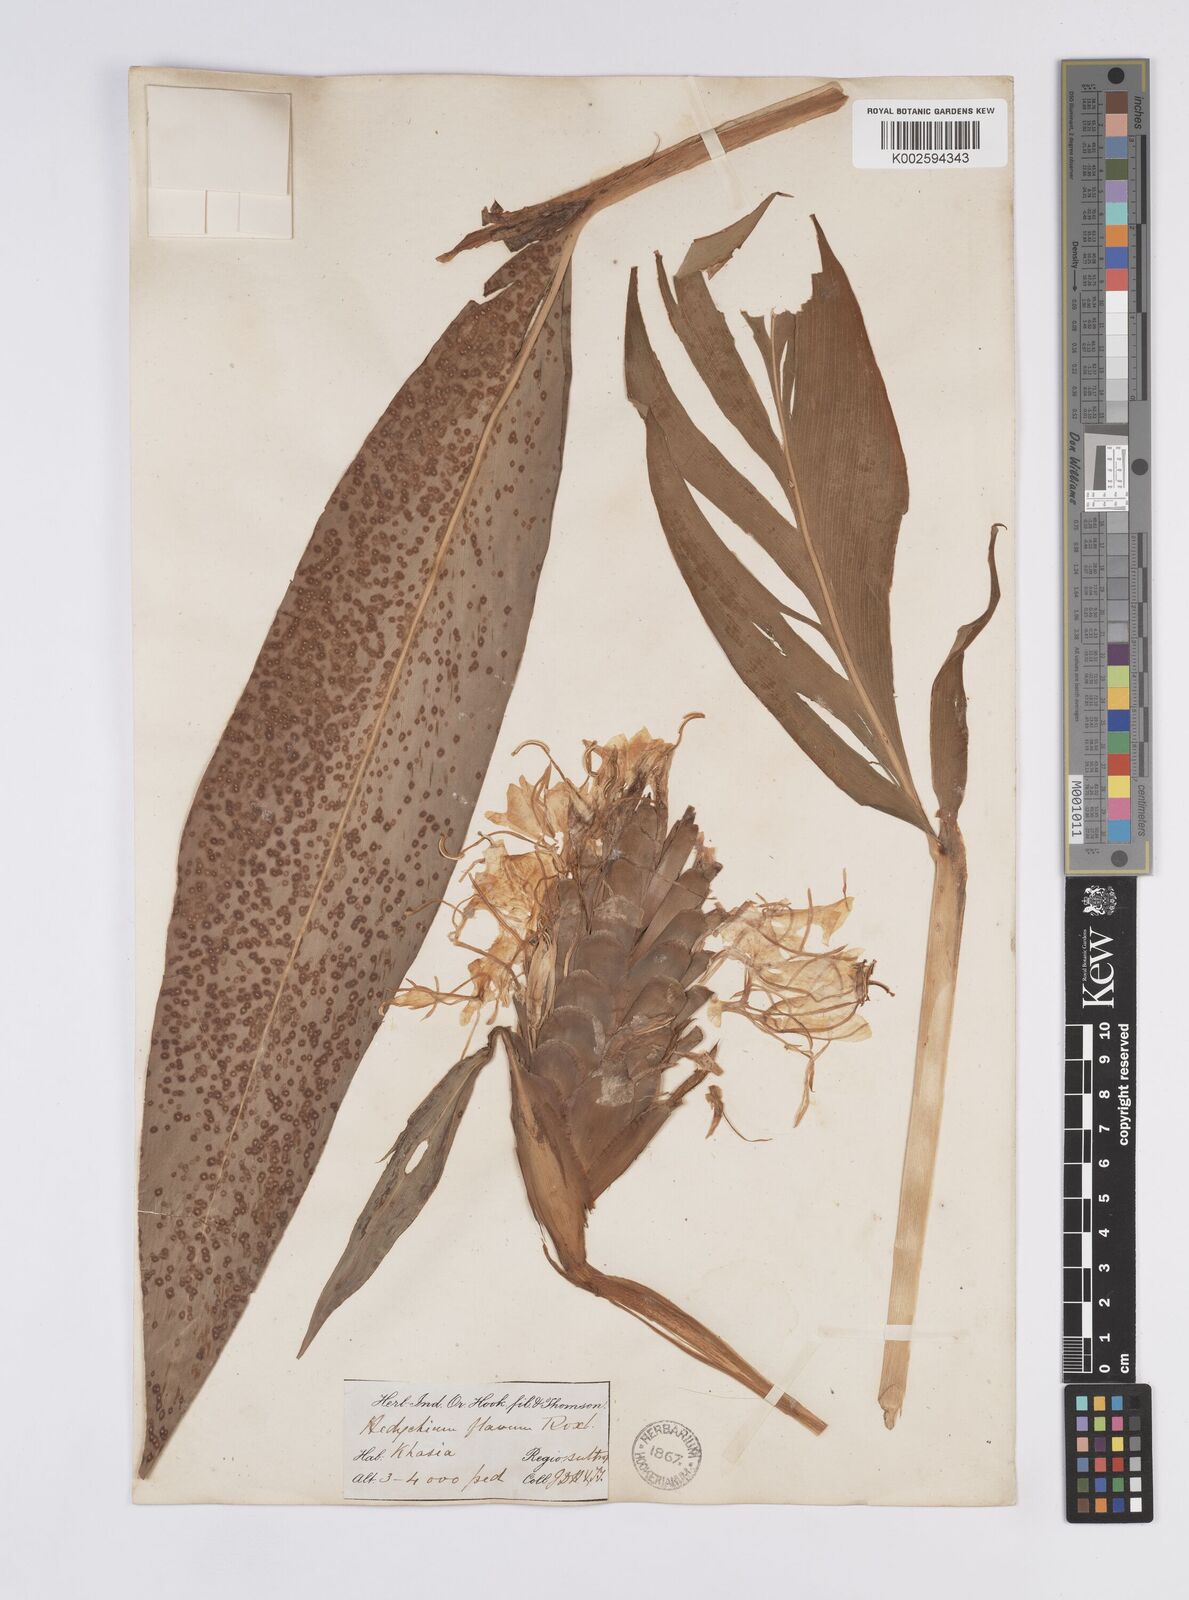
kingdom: Plantae
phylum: Tracheophyta
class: Liliopsida
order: Zingiberales
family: Zingiberaceae
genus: Hedychium
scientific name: Hedychium flavescens
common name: Yellow ginger
